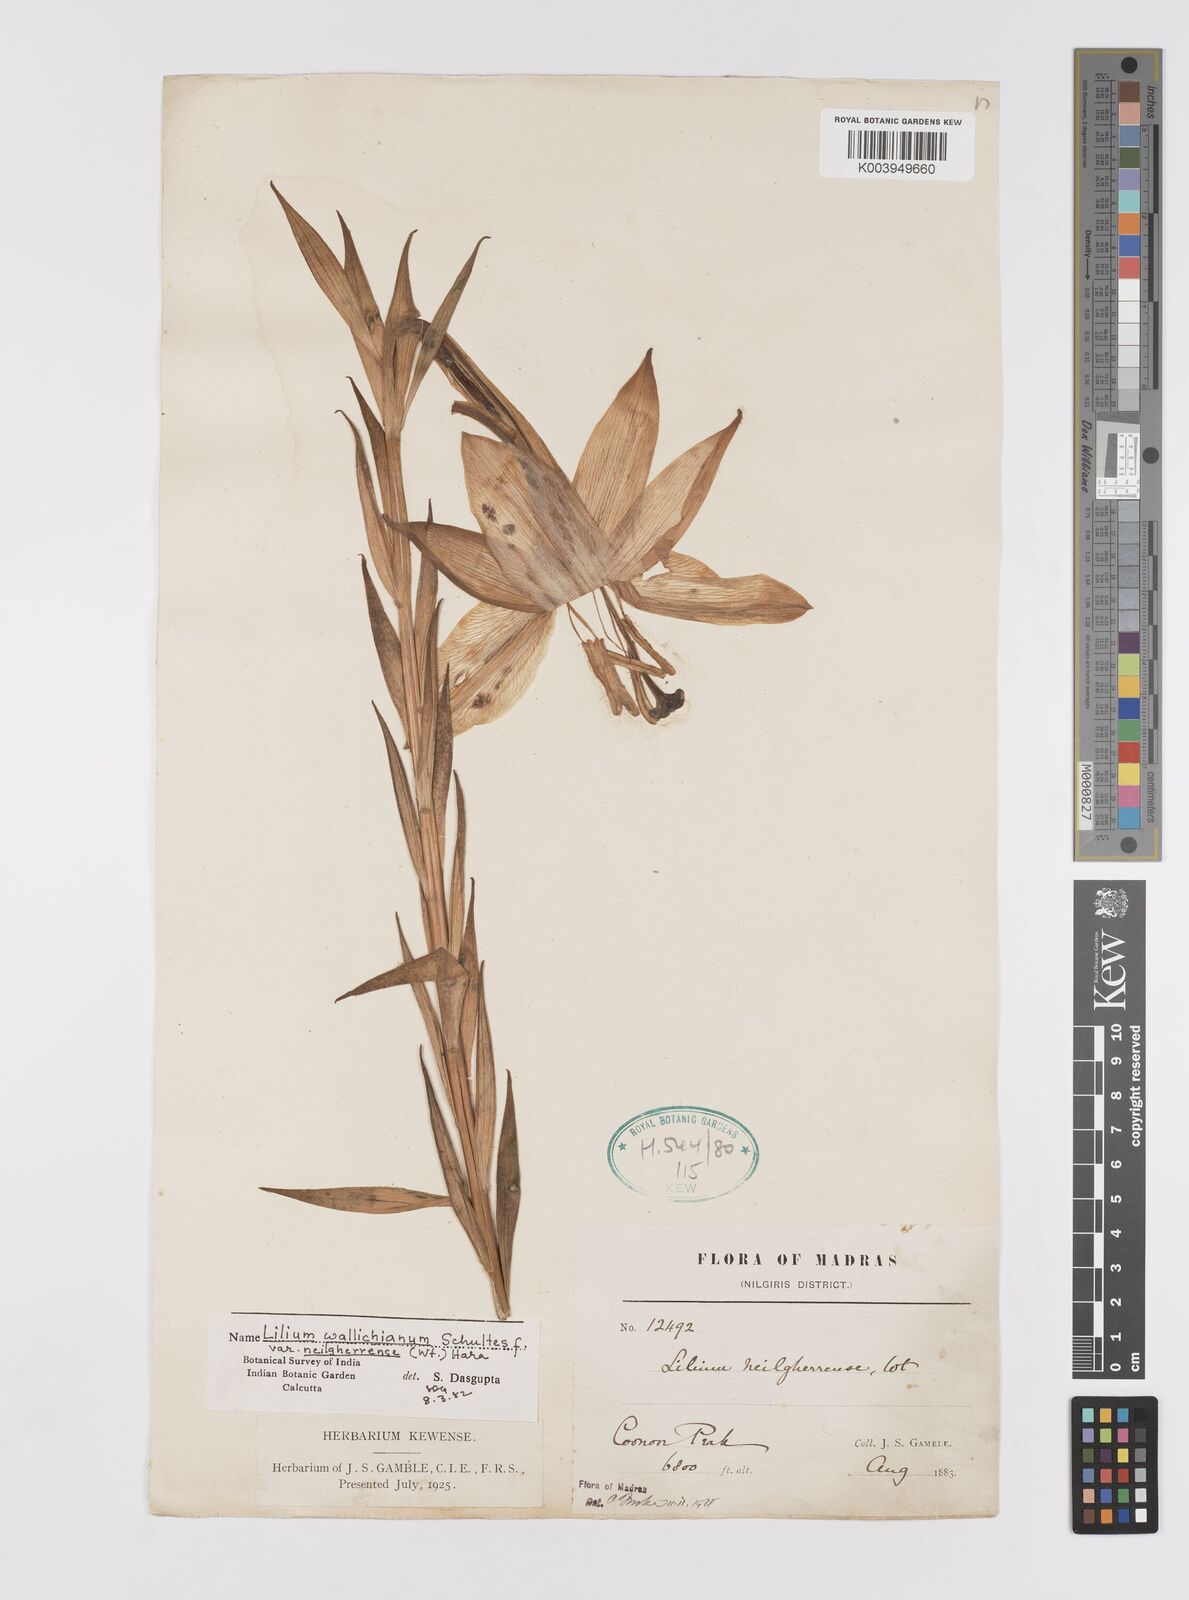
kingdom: Plantae
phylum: Tracheophyta
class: Liliopsida
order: Liliales
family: Liliaceae
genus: Lilium
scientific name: Lilium wallichianum
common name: Wallich's lily
